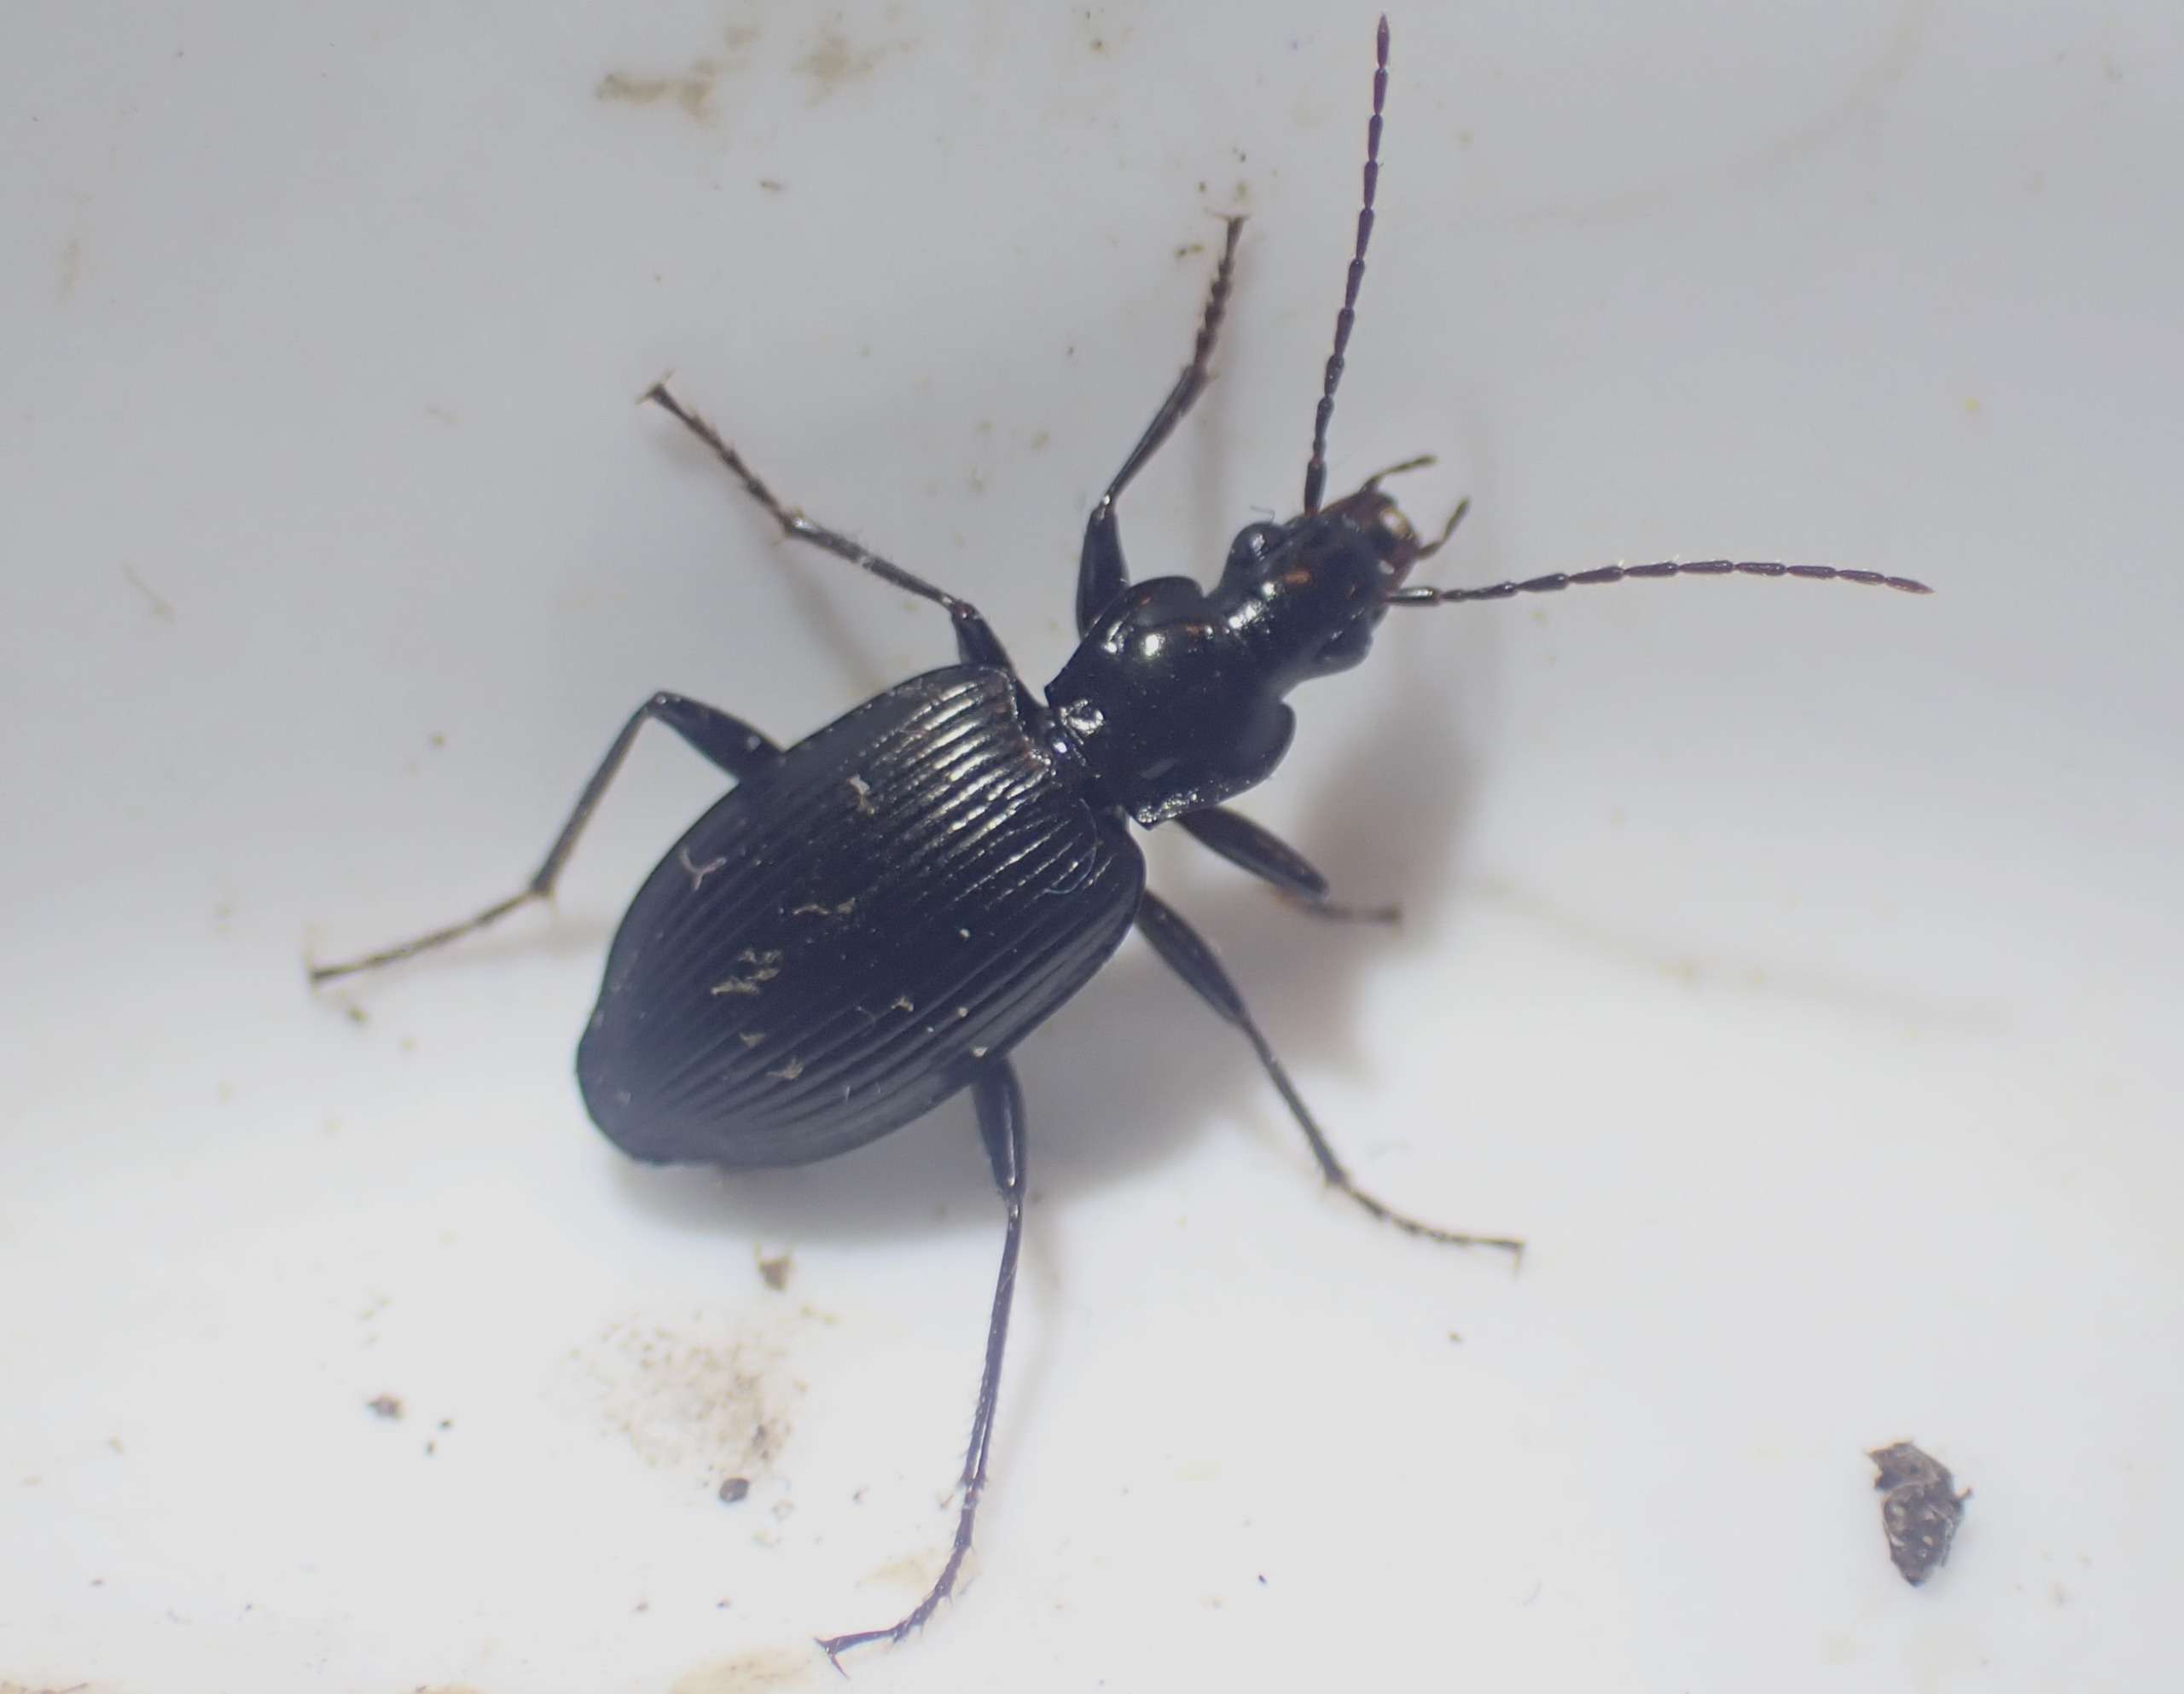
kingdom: Animalia
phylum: Arthropoda
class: Insecta
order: Coleoptera
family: Carabidae
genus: Platynus
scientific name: Platynus assimilis
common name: Skovkvikløber
